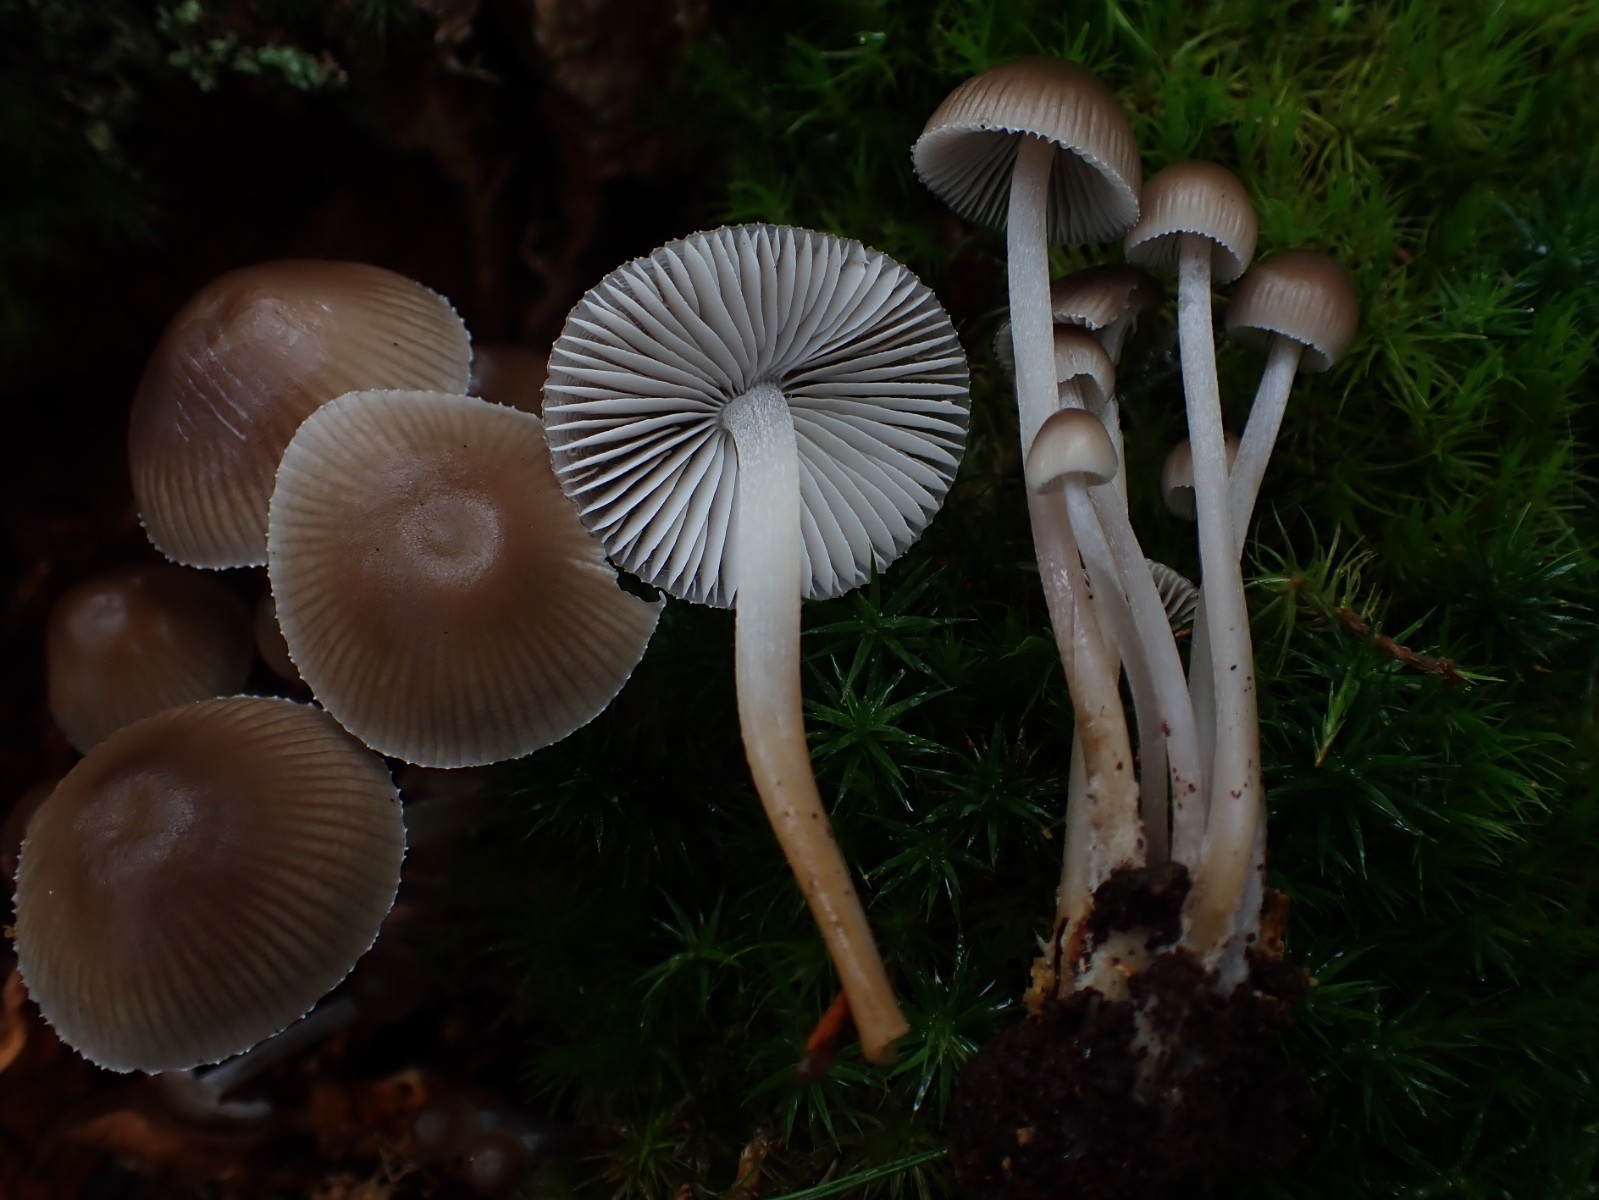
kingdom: Fungi
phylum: Basidiomycota
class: Agaricomycetes
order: Agaricales
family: Mycenaceae
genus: Mycena
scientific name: Mycena inclinata
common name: nikkende huesvamp
